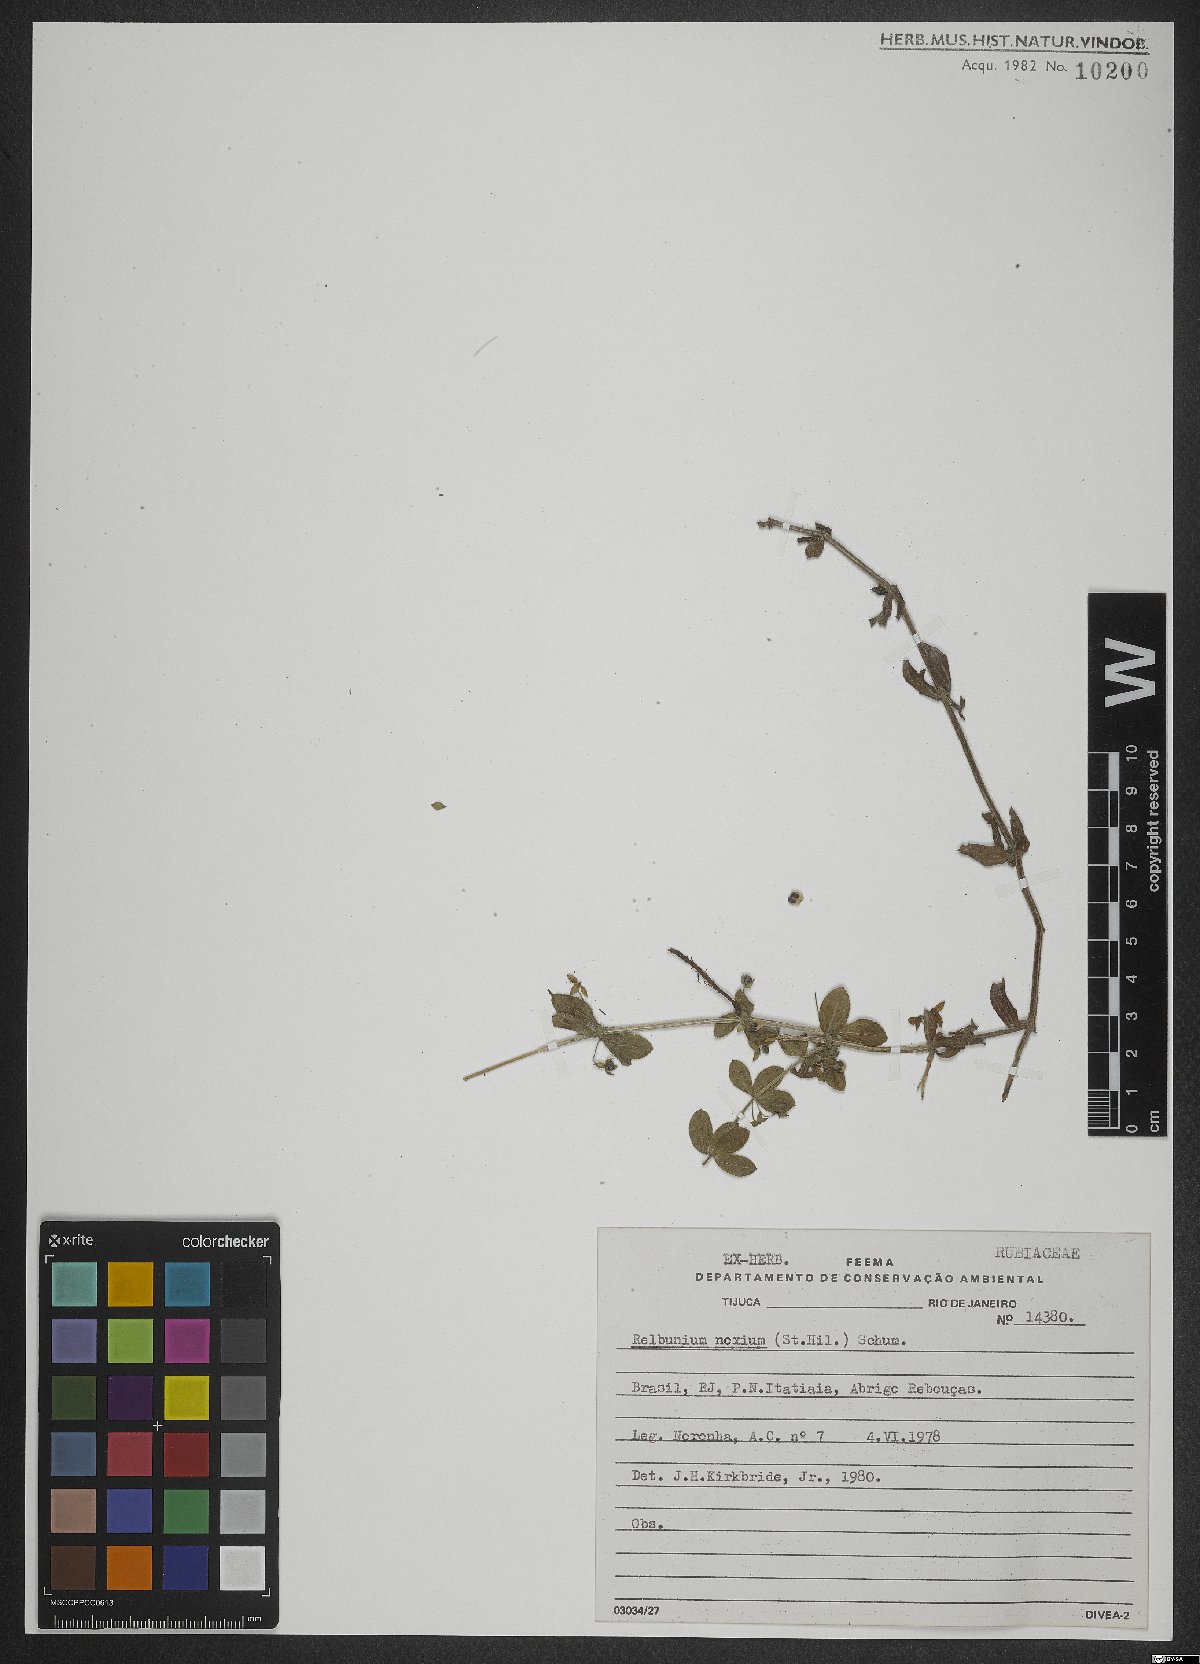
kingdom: Plantae
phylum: Tracheophyta
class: Magnoliopsida
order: Gentianales
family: Rubiaceae
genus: Galium
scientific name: Galium noxium
